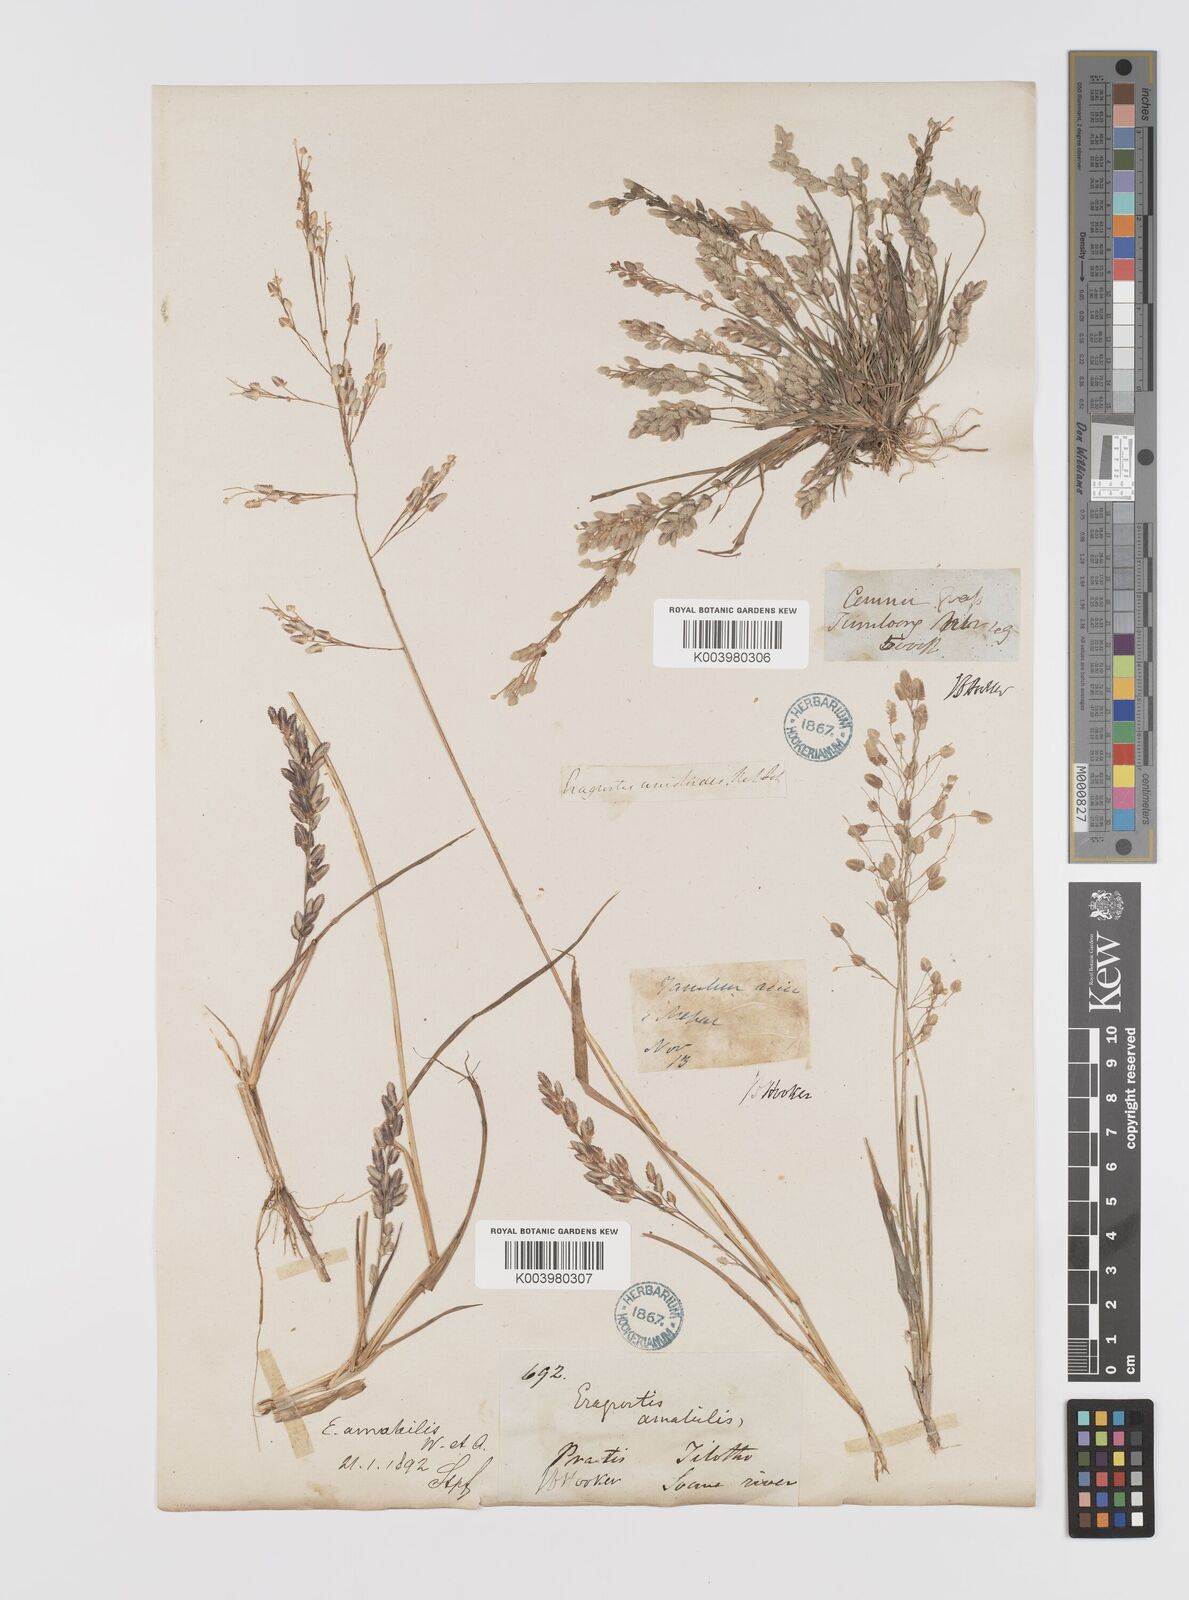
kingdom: Plantae
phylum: Tracheophyta
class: Liliopsida
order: Poales
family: Poaceae
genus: Eragrostis
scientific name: Eragrostis viscosa
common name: Sticky love grass
